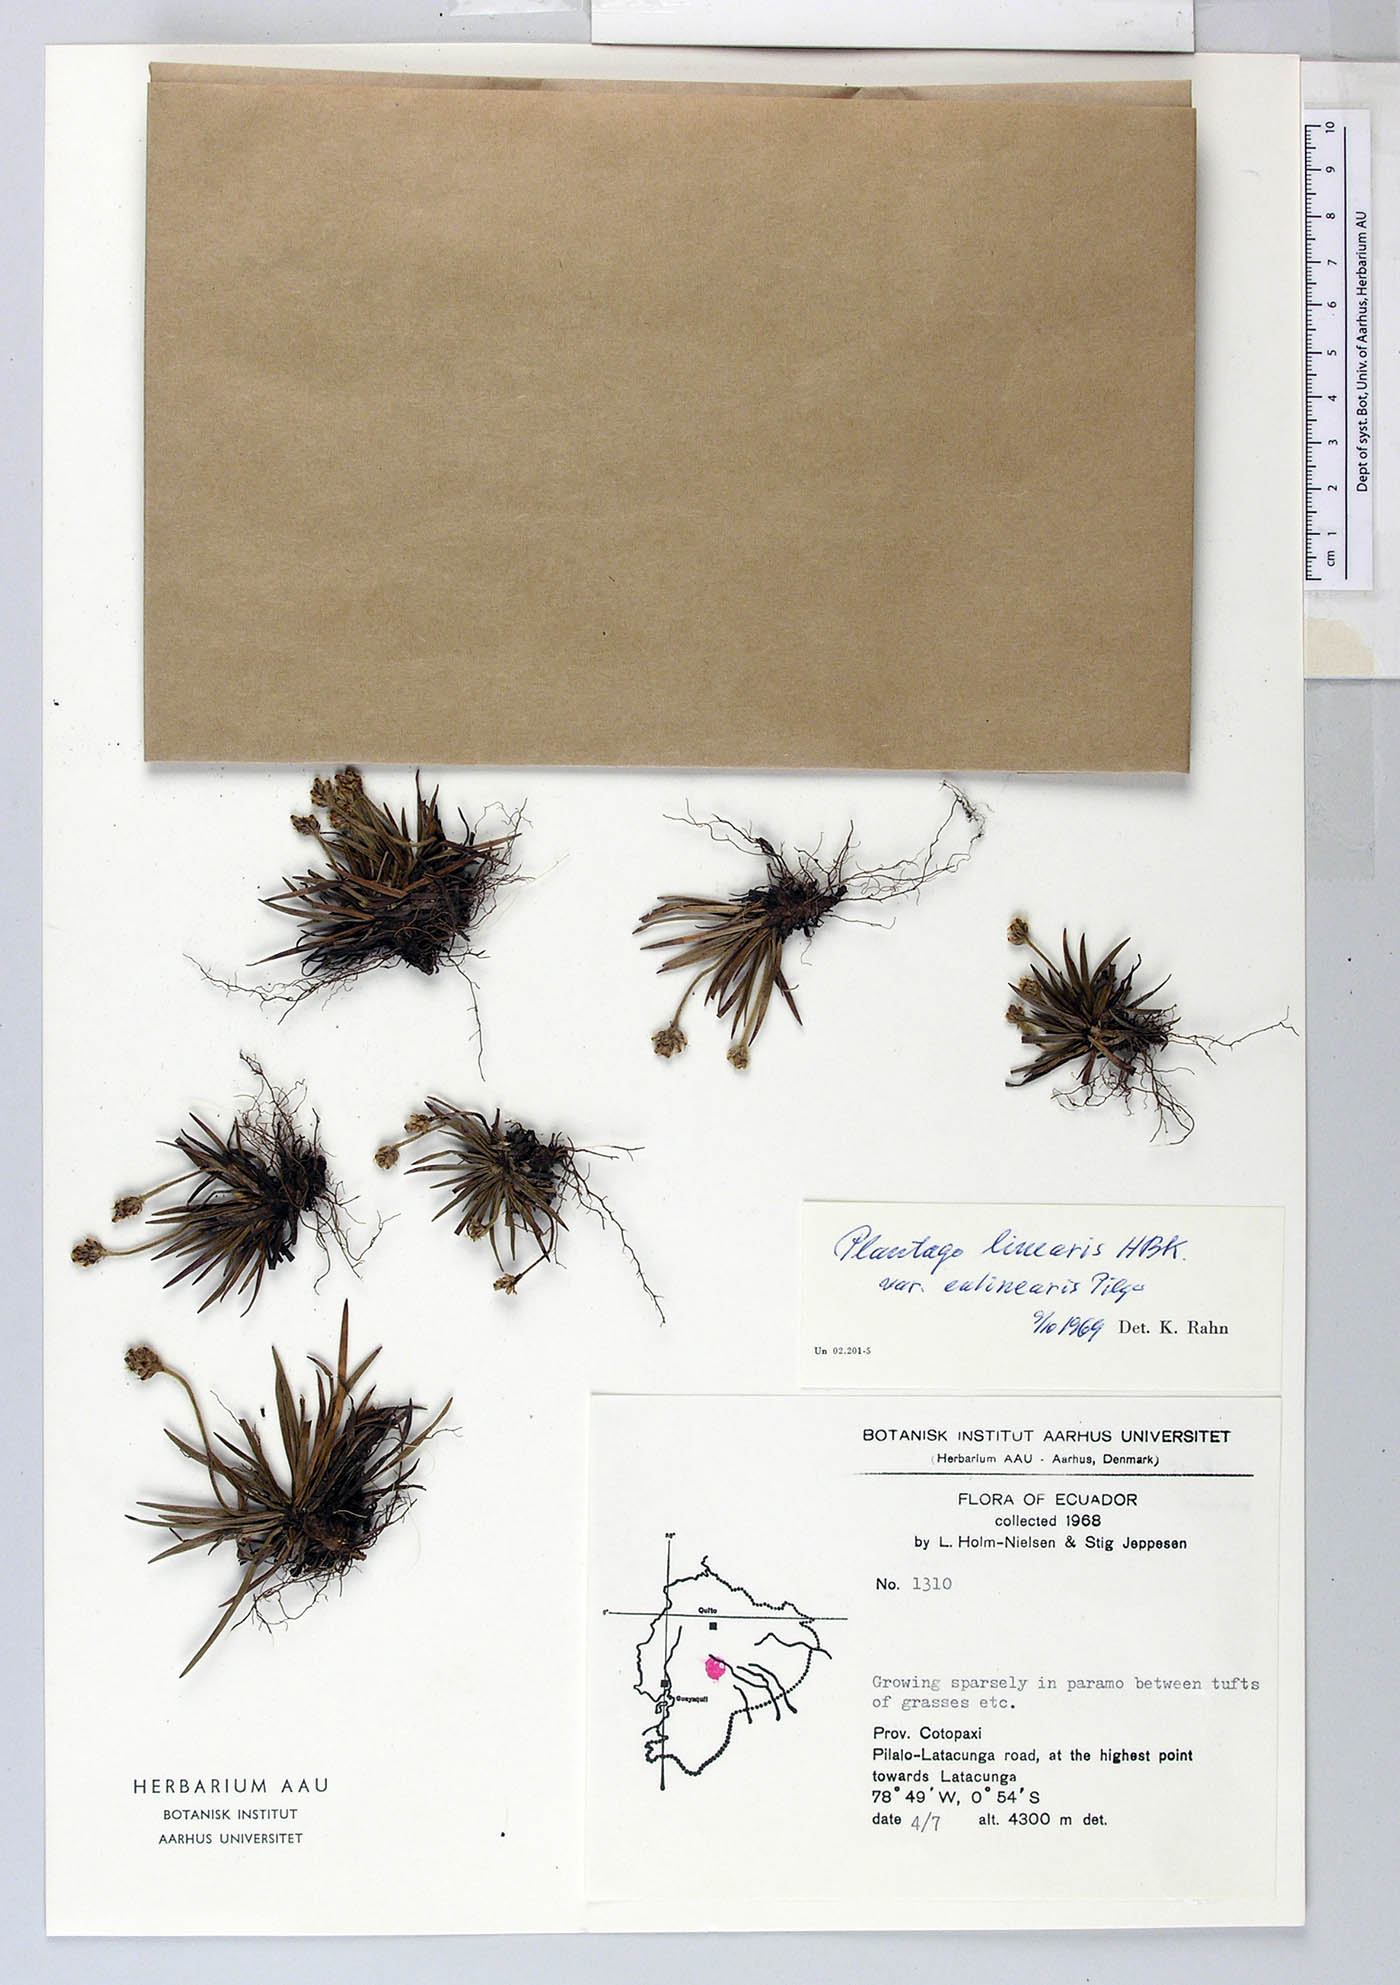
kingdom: Plantae
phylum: Tracheophyta
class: Magnoliopsida
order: Lamiales
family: Plantaginaceae
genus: Plantago
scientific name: Plantago linearis
